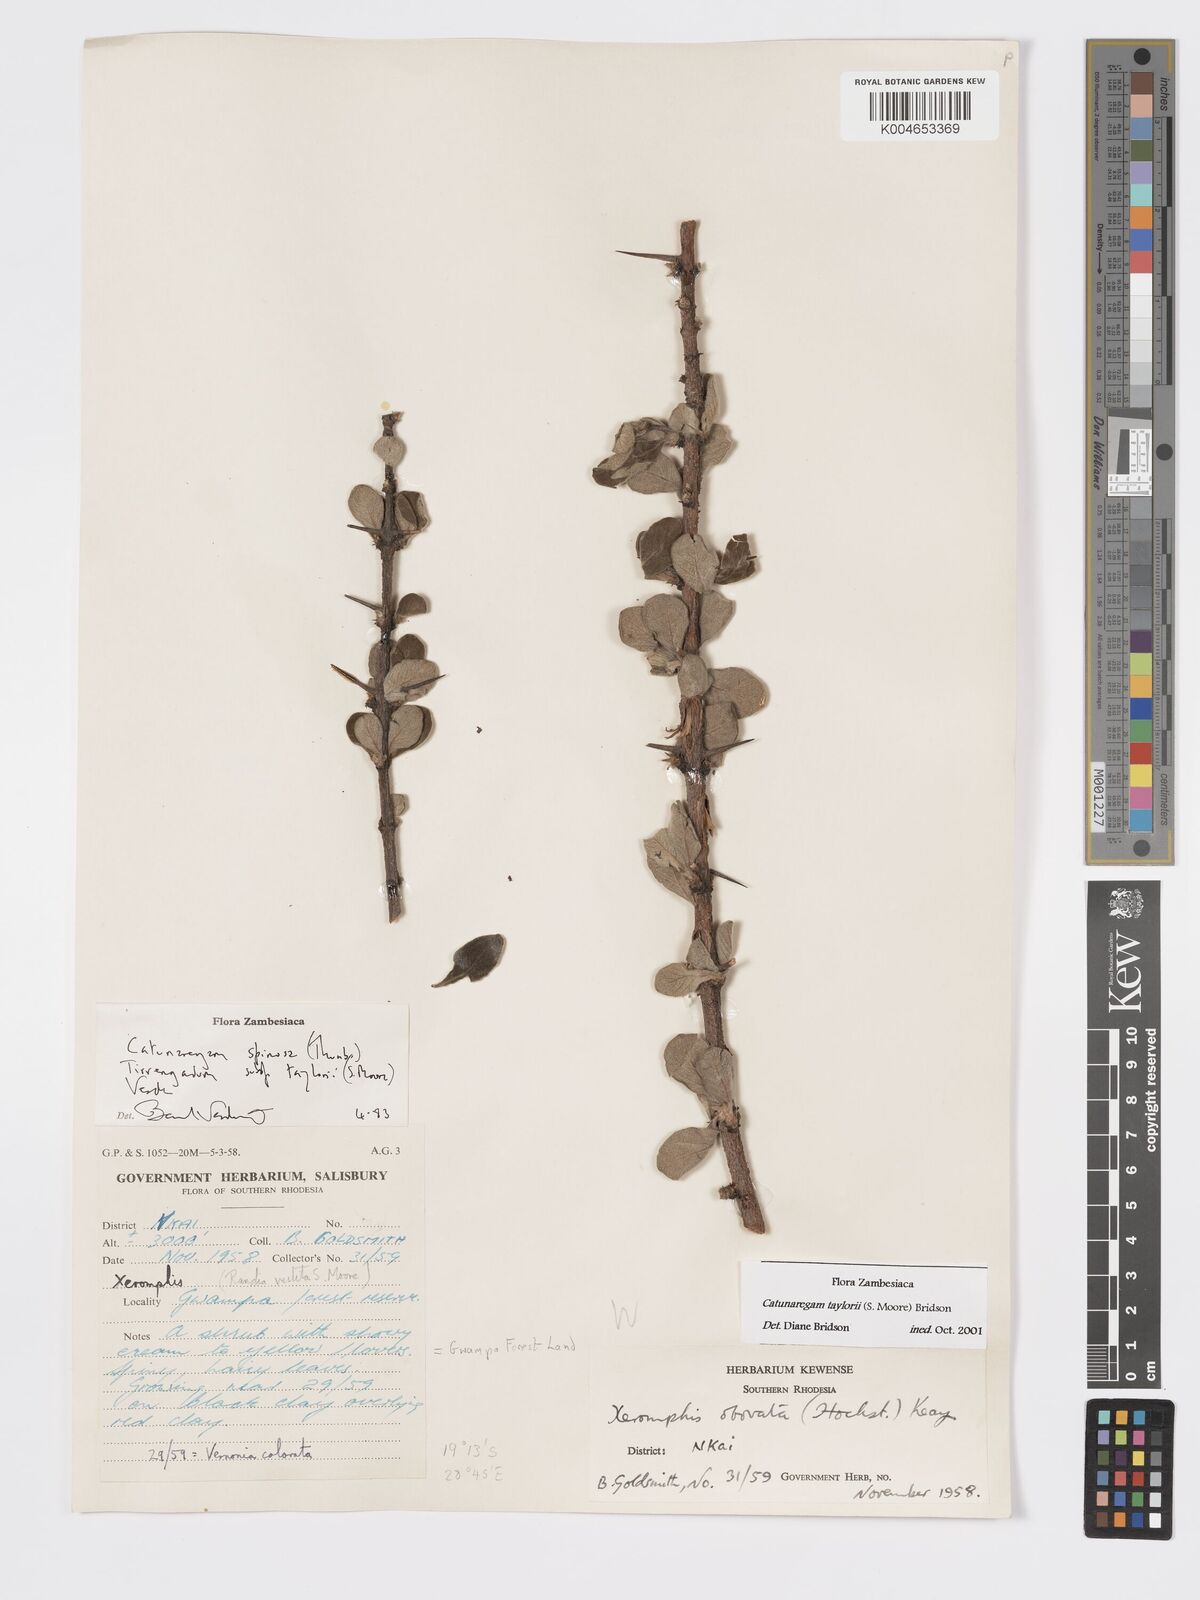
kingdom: Plantae
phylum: Tracheophyta
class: Magnoliopsida
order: Gentianales
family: Rubiaceae
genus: Catunaregam
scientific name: Catunaregam
